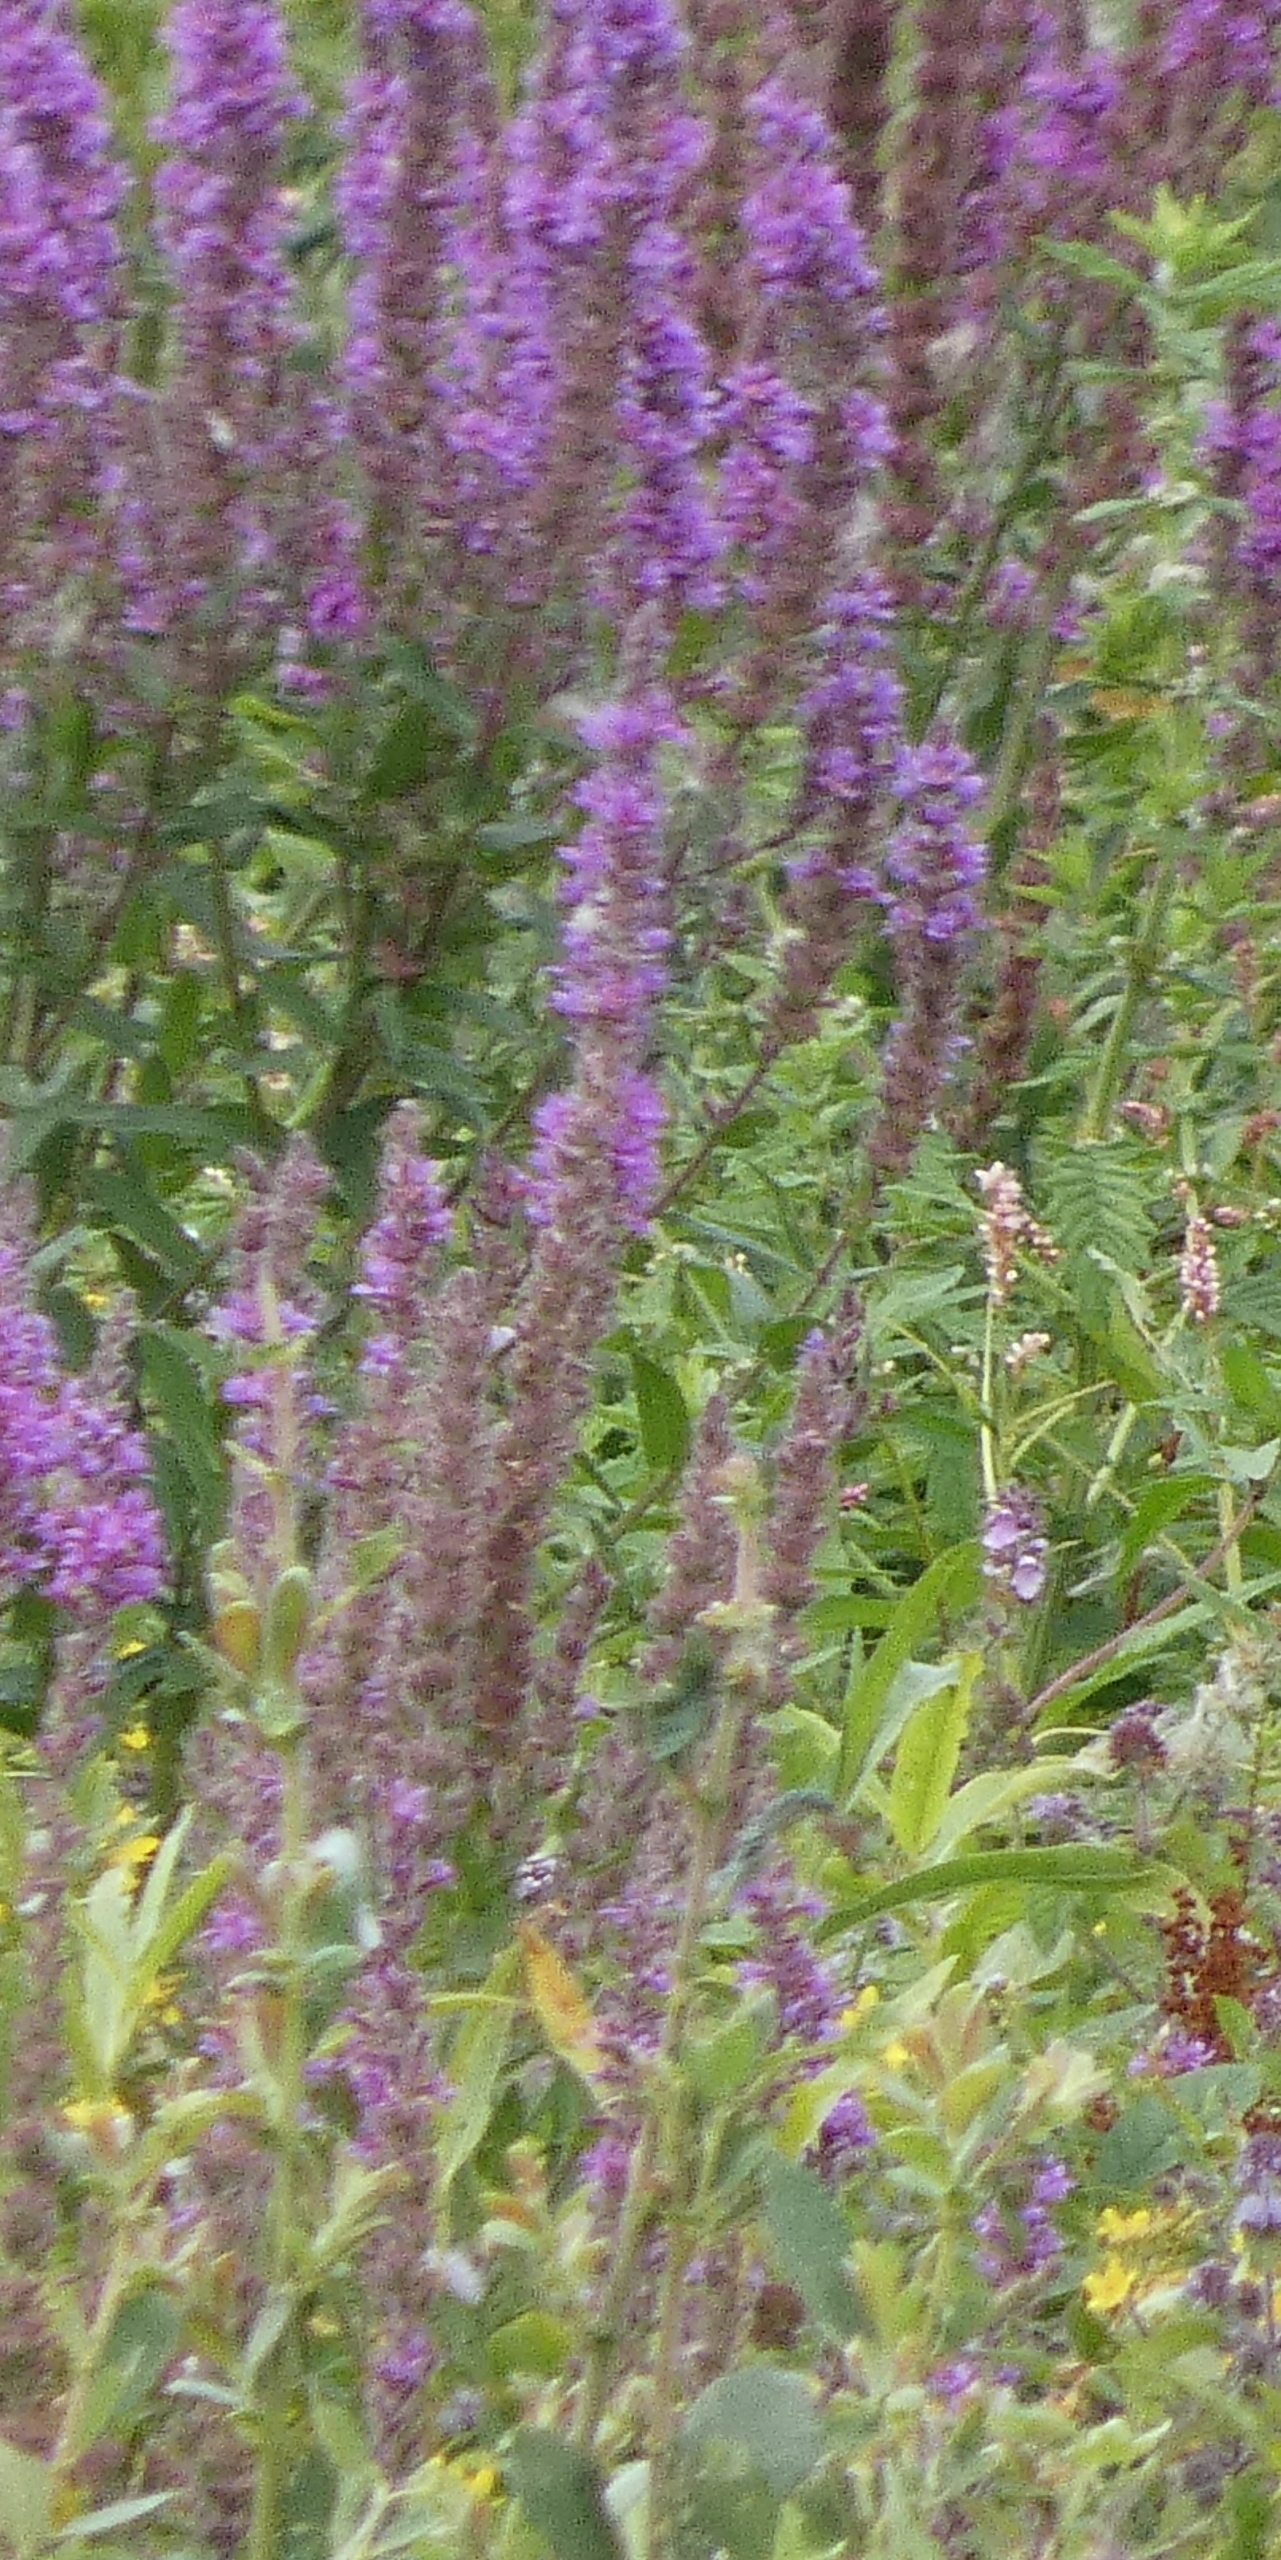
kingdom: Plantae
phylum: Tracheophyta
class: Magnoliopsida
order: Myrtales
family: Lythraceae
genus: Lythrum
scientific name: Lythrum salicaria
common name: Kattehale
